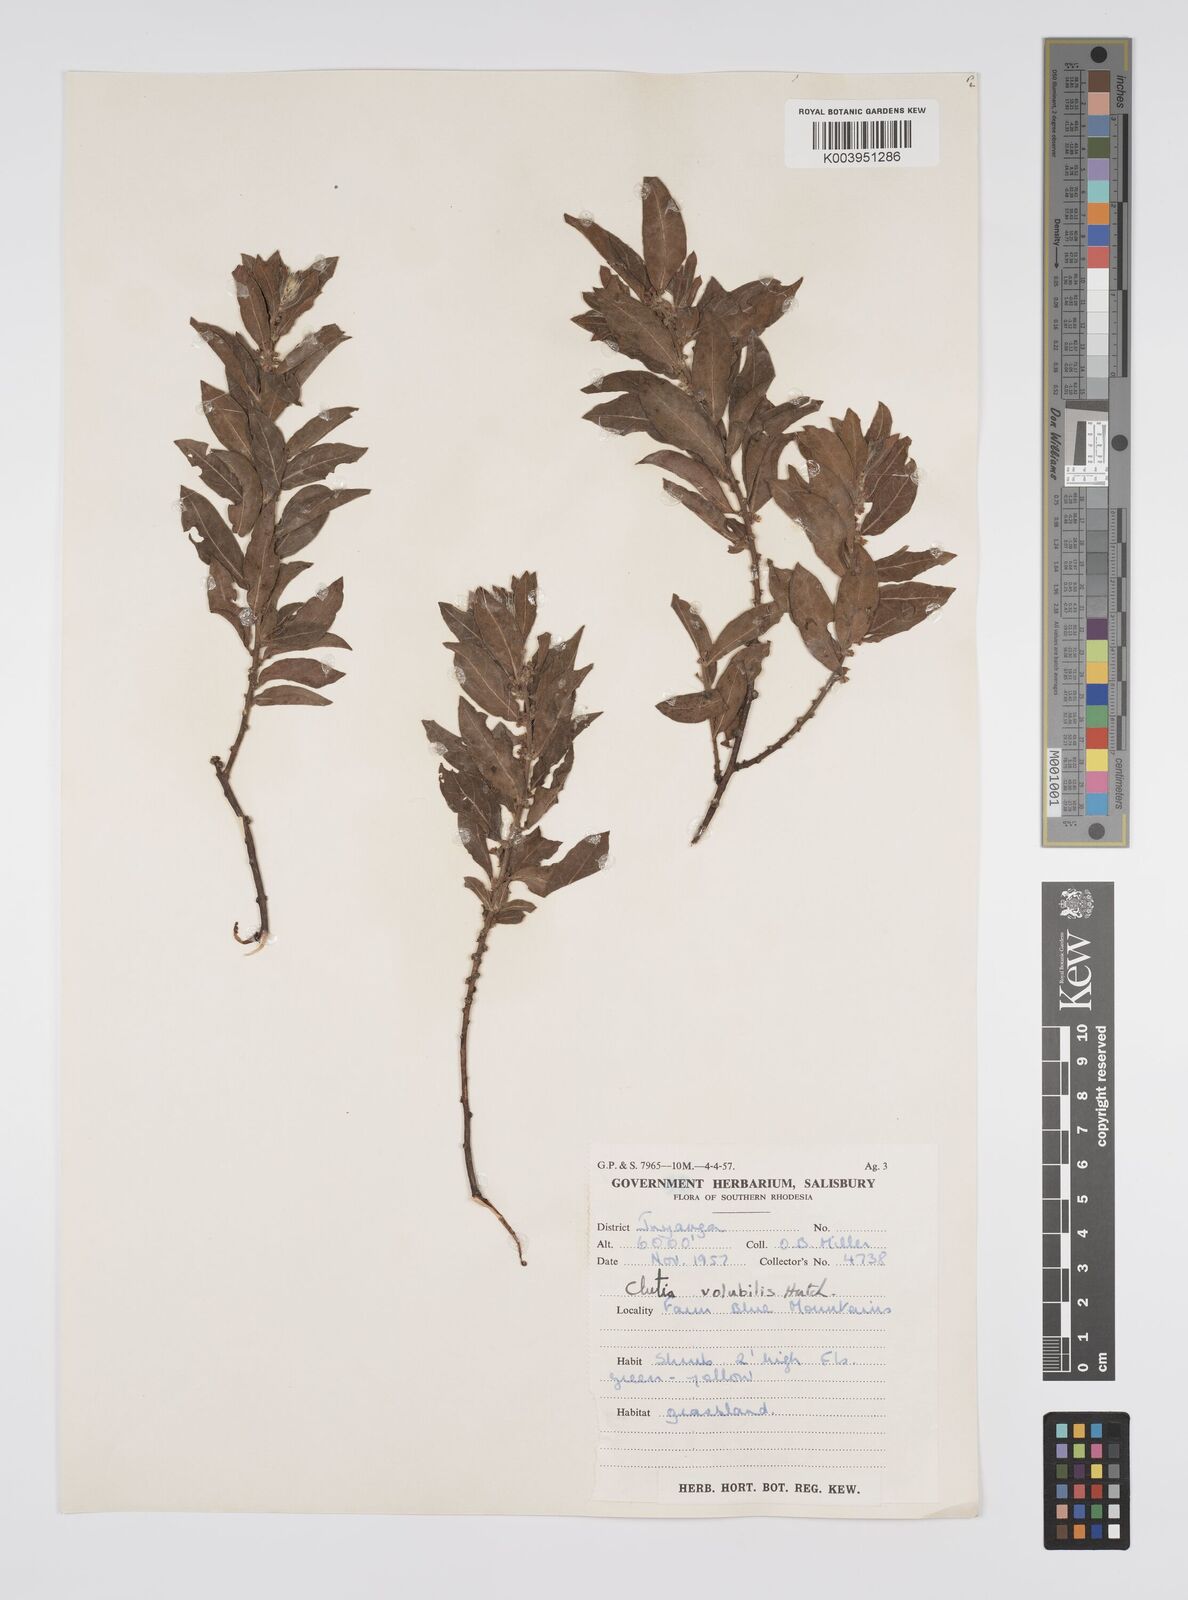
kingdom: Plantae
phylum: Tracheophyta
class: Magnoliopsida
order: Malpighiales
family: Peraceae
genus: Clutia
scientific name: Clutia
